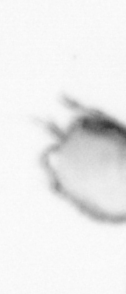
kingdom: Animalia
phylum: Arthropoda
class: Copepoda
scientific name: Copepoda
